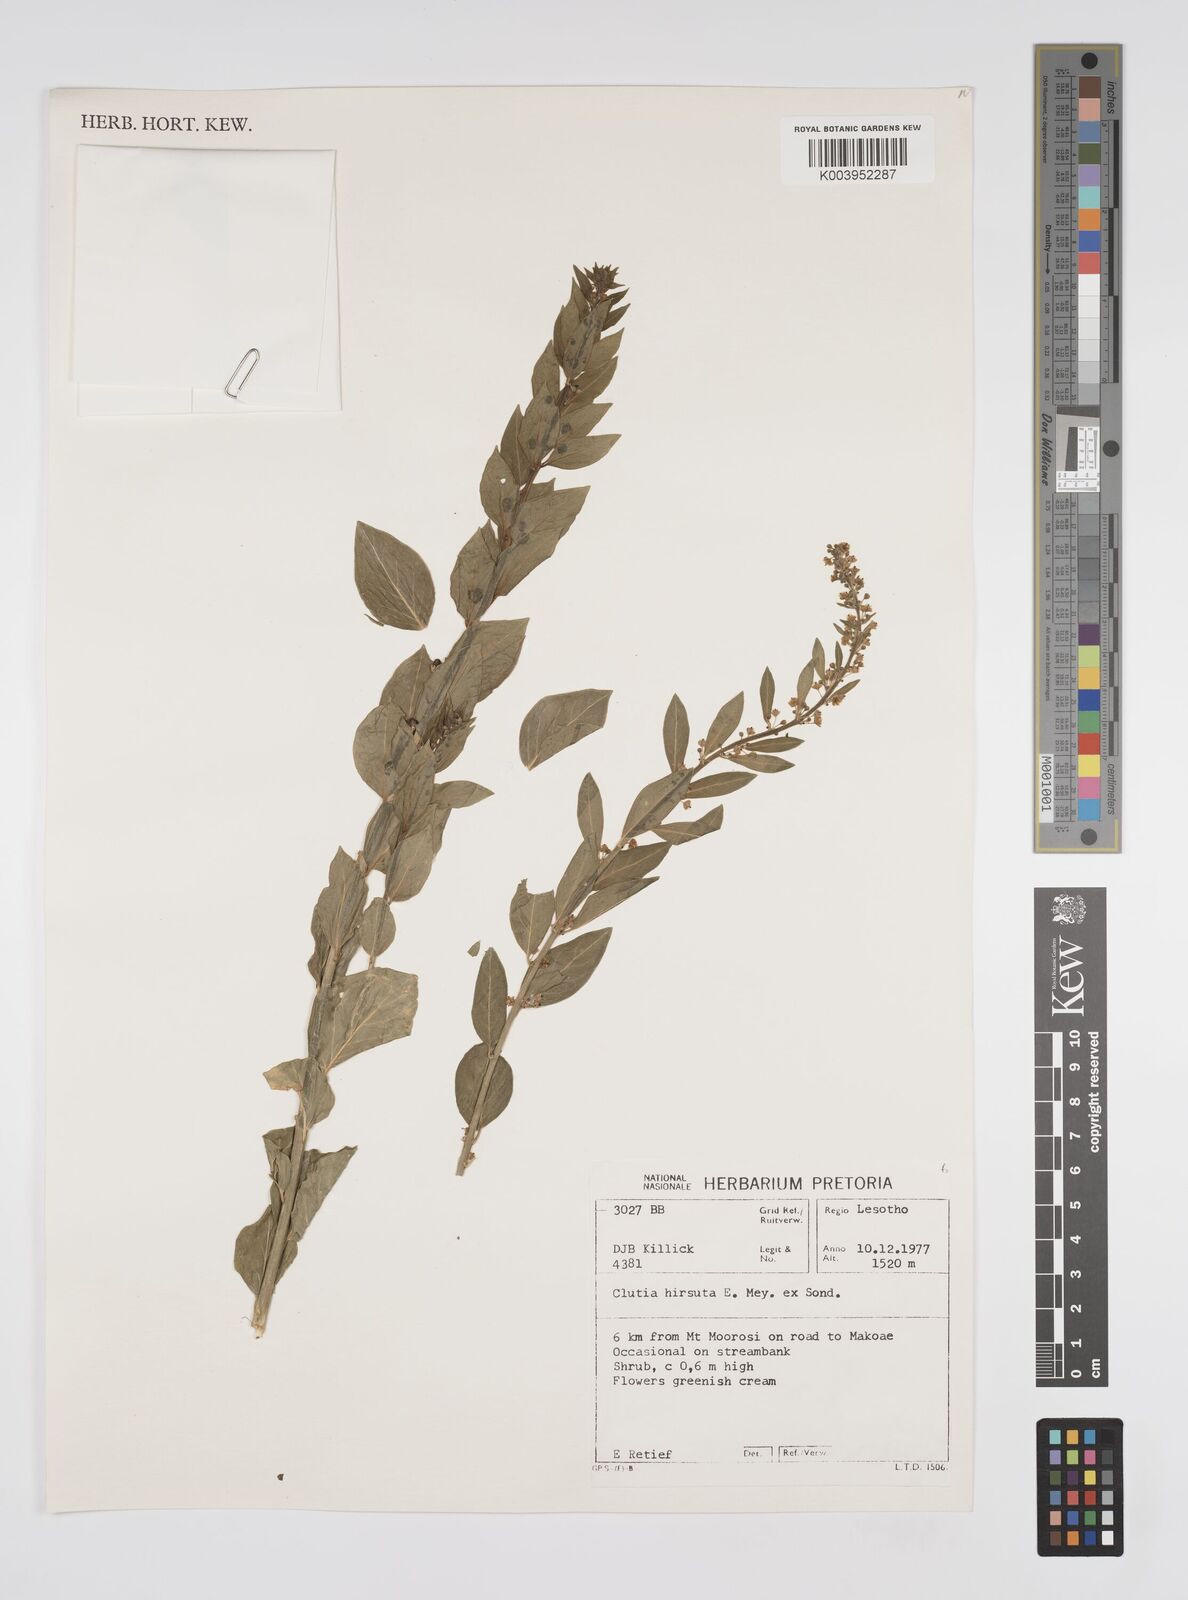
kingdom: Plantae
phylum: Tracheophyta
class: Magnoliopsida
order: Malpighiales
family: Peraceae
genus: Clutia
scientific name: Clutia affinis
